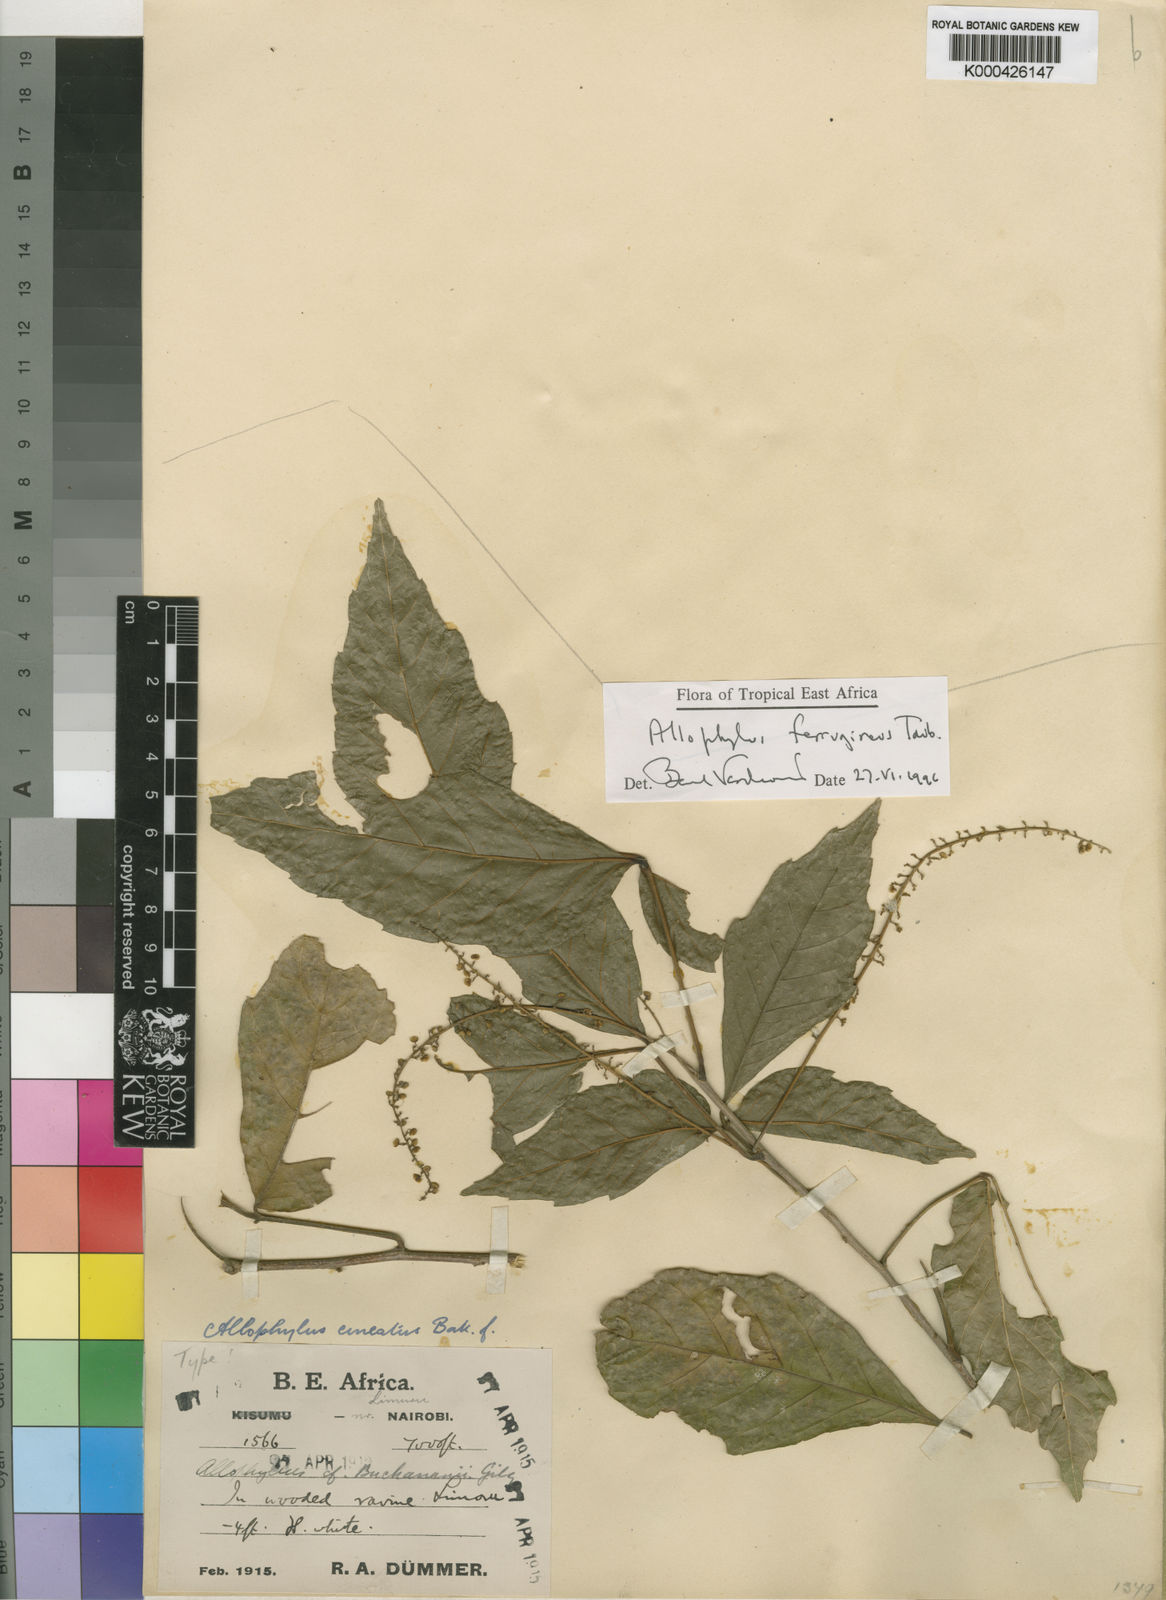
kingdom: Plantae
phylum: Tracheophyta
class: Magnoliopsida
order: Sapindales
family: Sapindaceae
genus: Allophylus
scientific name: Allophylus ferrugineus
